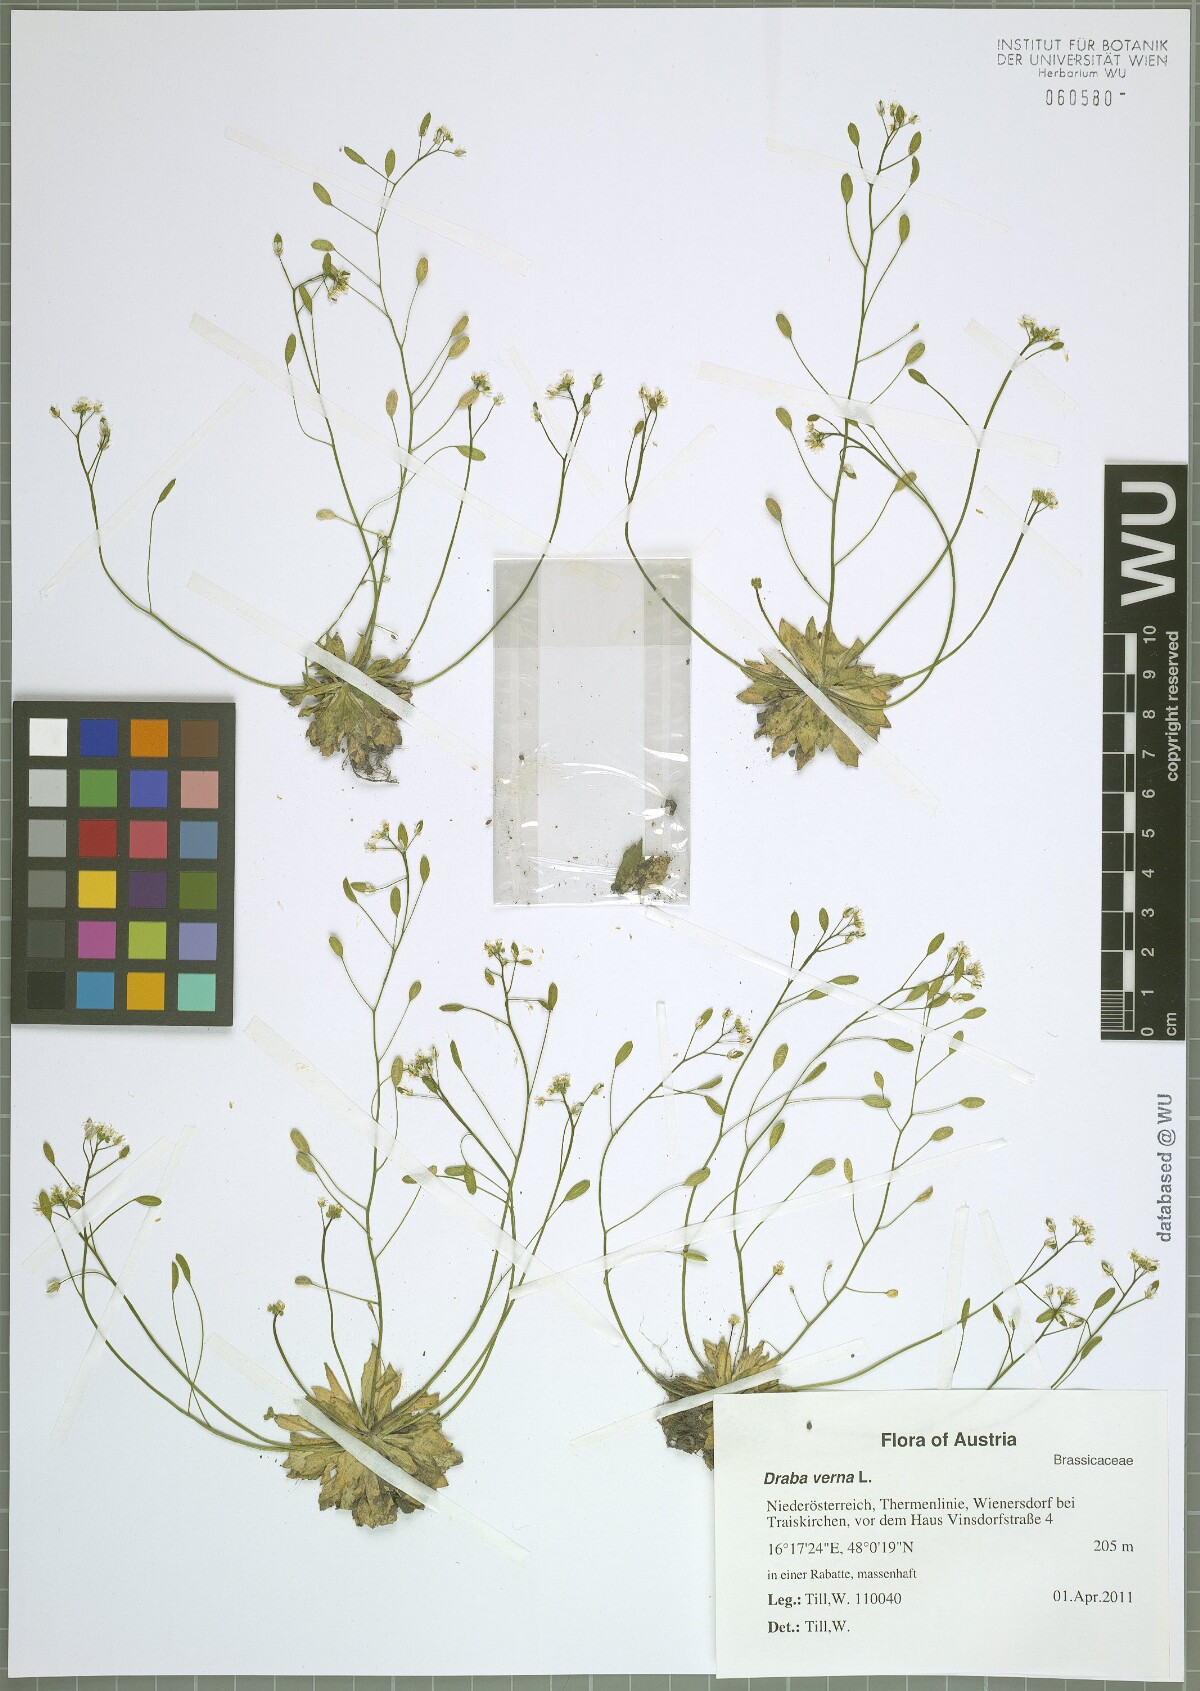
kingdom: Plantae
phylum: Tracheophyta
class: Magnoliopsida
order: Brassicales
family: Brassicaceae
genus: Draba
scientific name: Draba verna
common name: Spring draba
